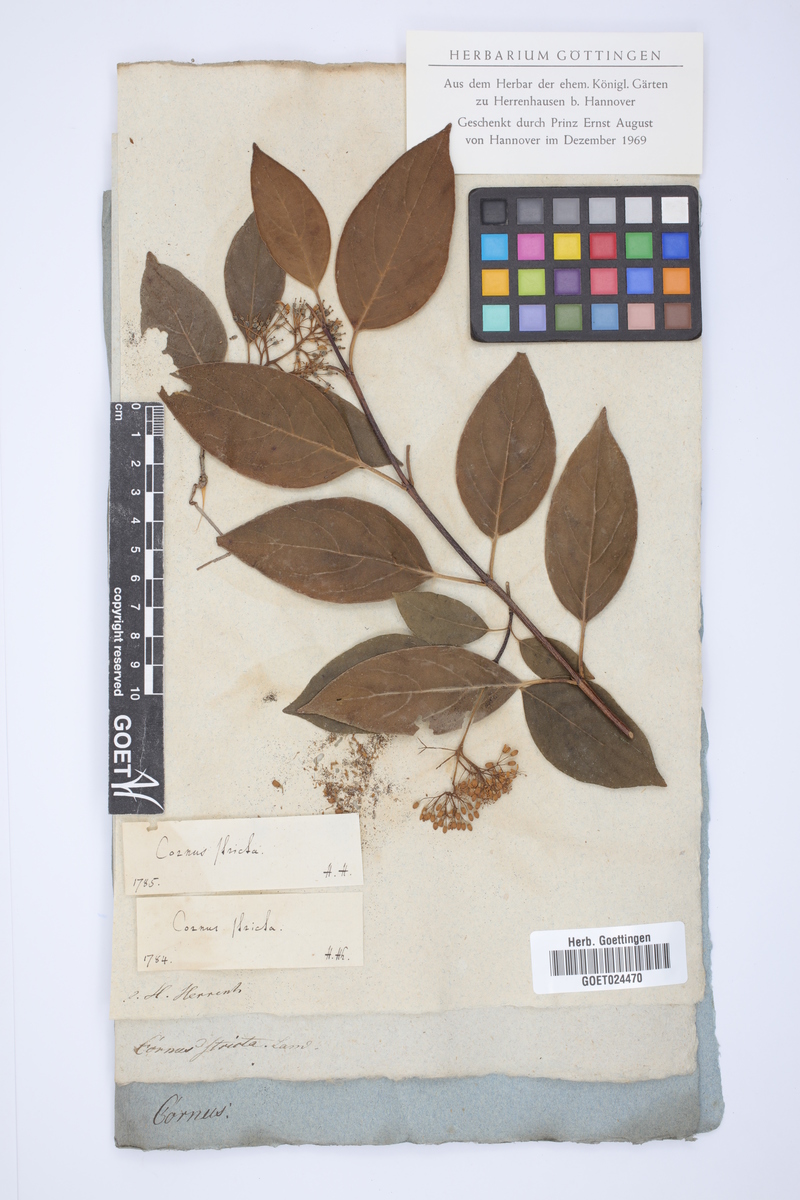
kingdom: Plantae
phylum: Tracheophyta
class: Magnoliopsida
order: Cornales
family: Cornaceae
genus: Cornus
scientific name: Cornus foemina
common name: Swamp dogwood
